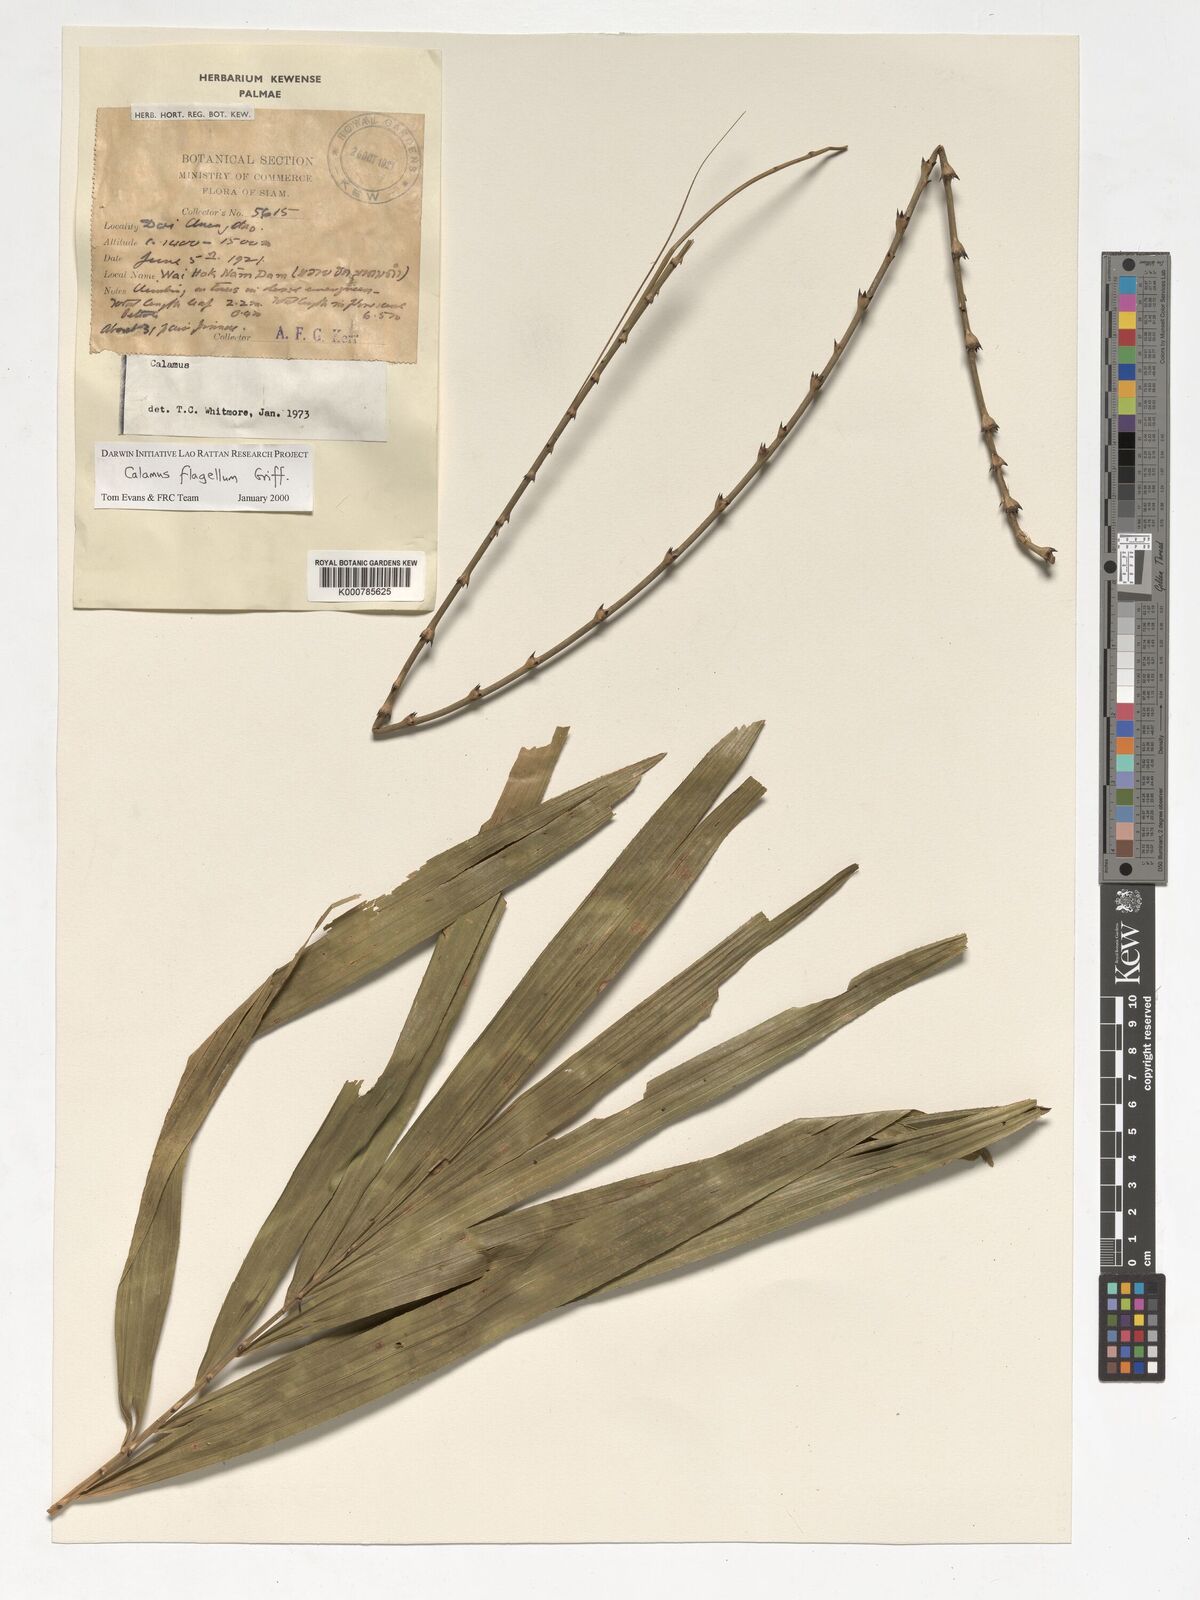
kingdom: Plantae
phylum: Tracheophyta
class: Liliopsida
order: Arecales
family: Arecaceae
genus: Calamus
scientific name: Calamus flagellum
